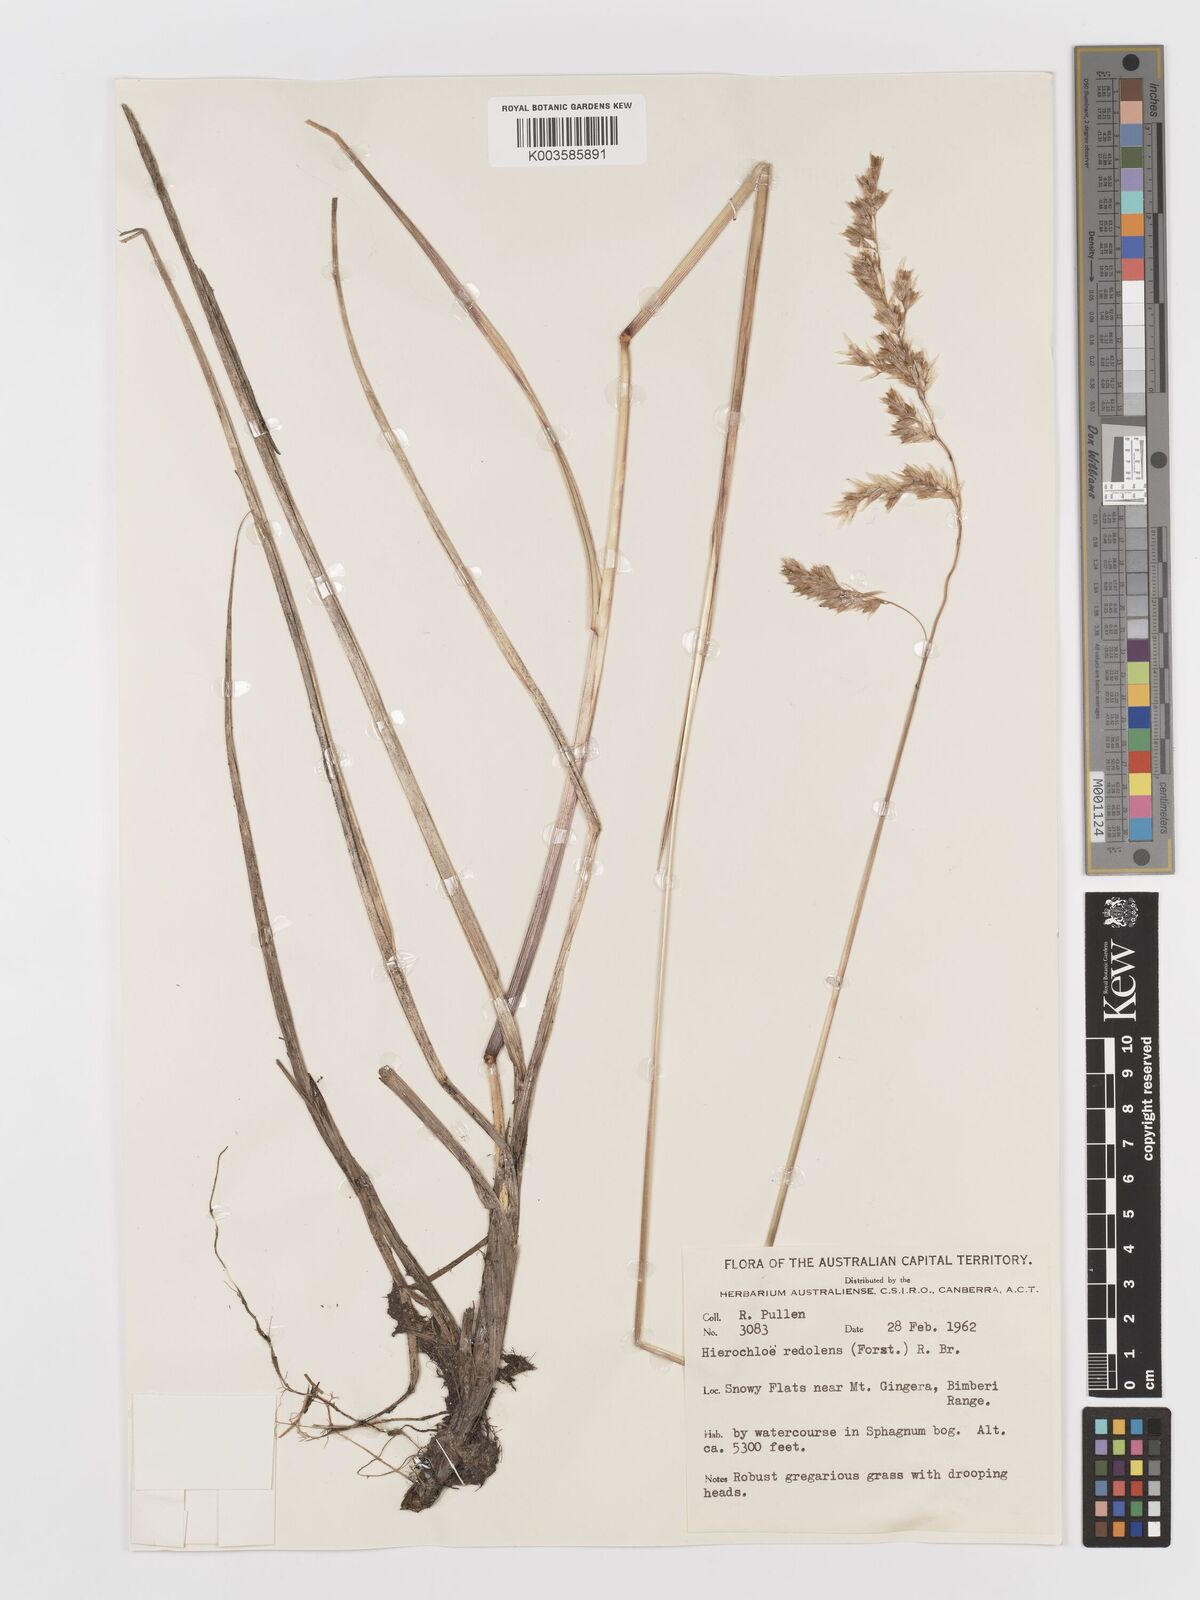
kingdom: Plantae
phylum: Tracheophyta
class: Liliopsida
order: Poales
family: Poaceae
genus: Anthoxanthum
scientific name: Anthoxanthum redolens
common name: Sweet holy grass
